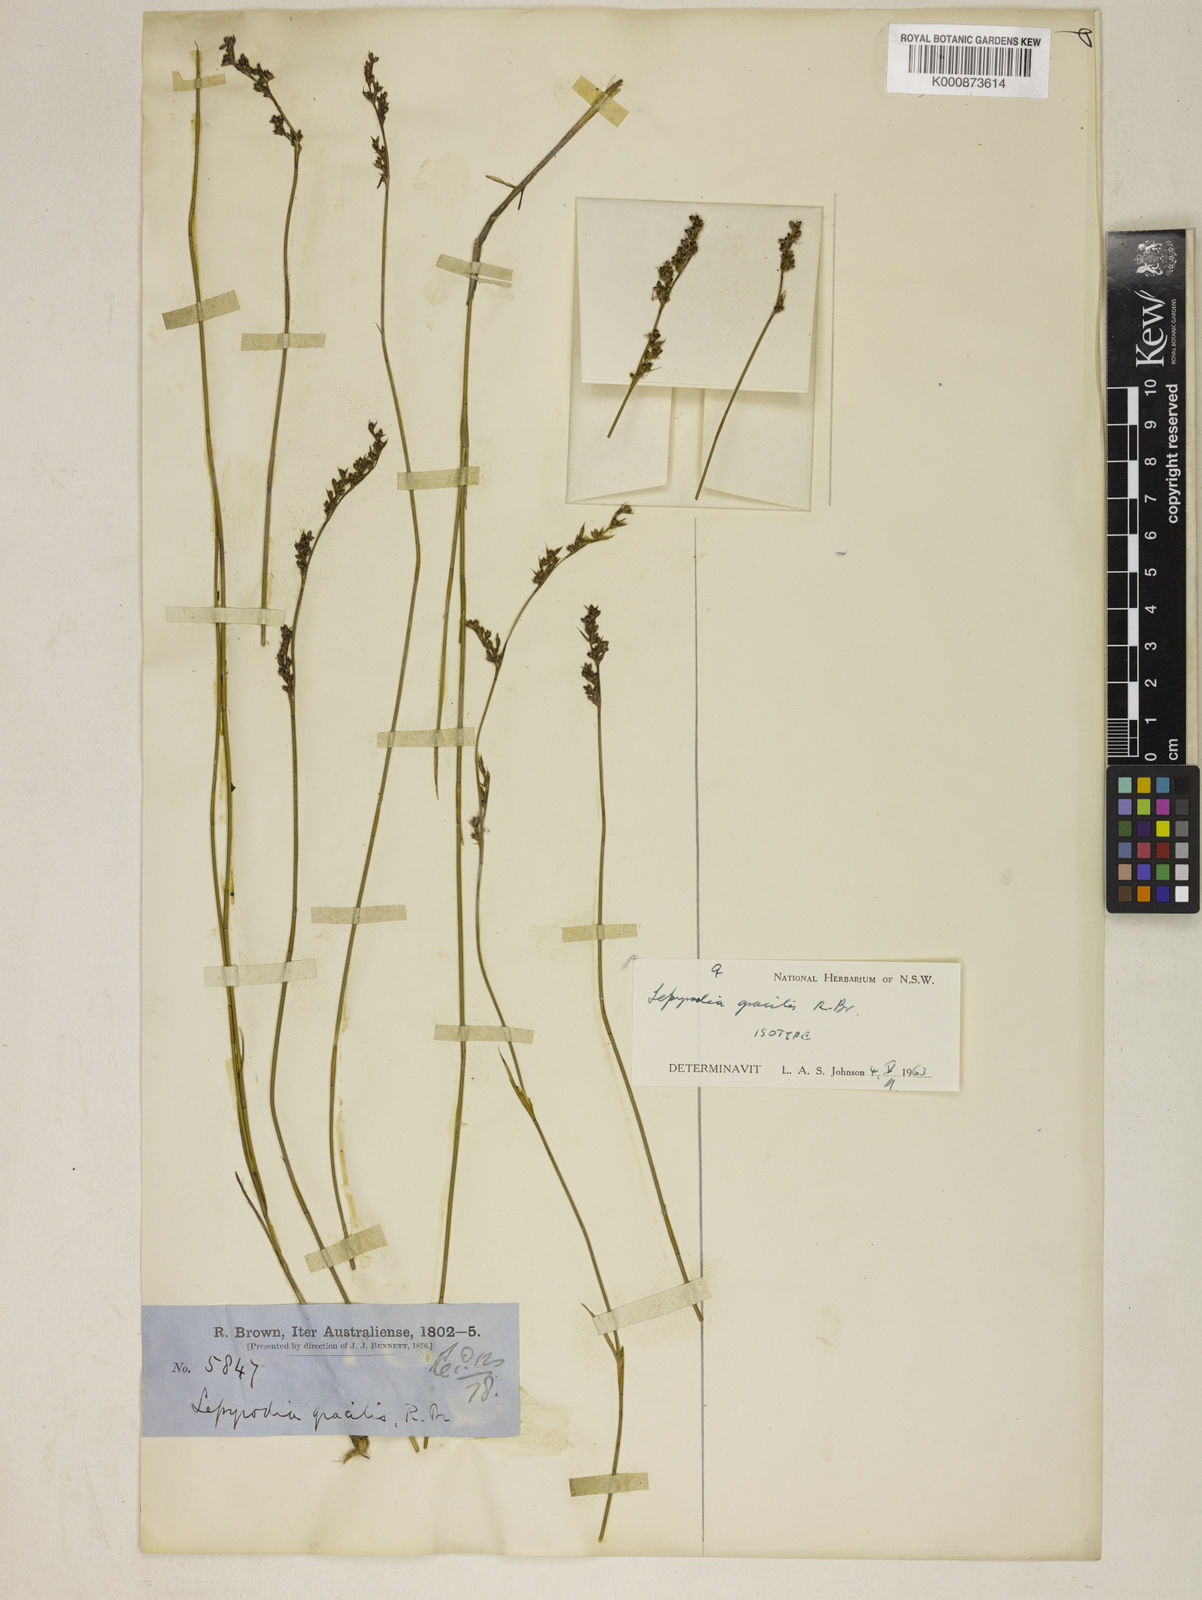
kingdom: Plantae
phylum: Tracheophyta
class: Liliopsida
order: Poales
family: Restionaceae
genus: Sporadanthus
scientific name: Sporadanthus gracilis
